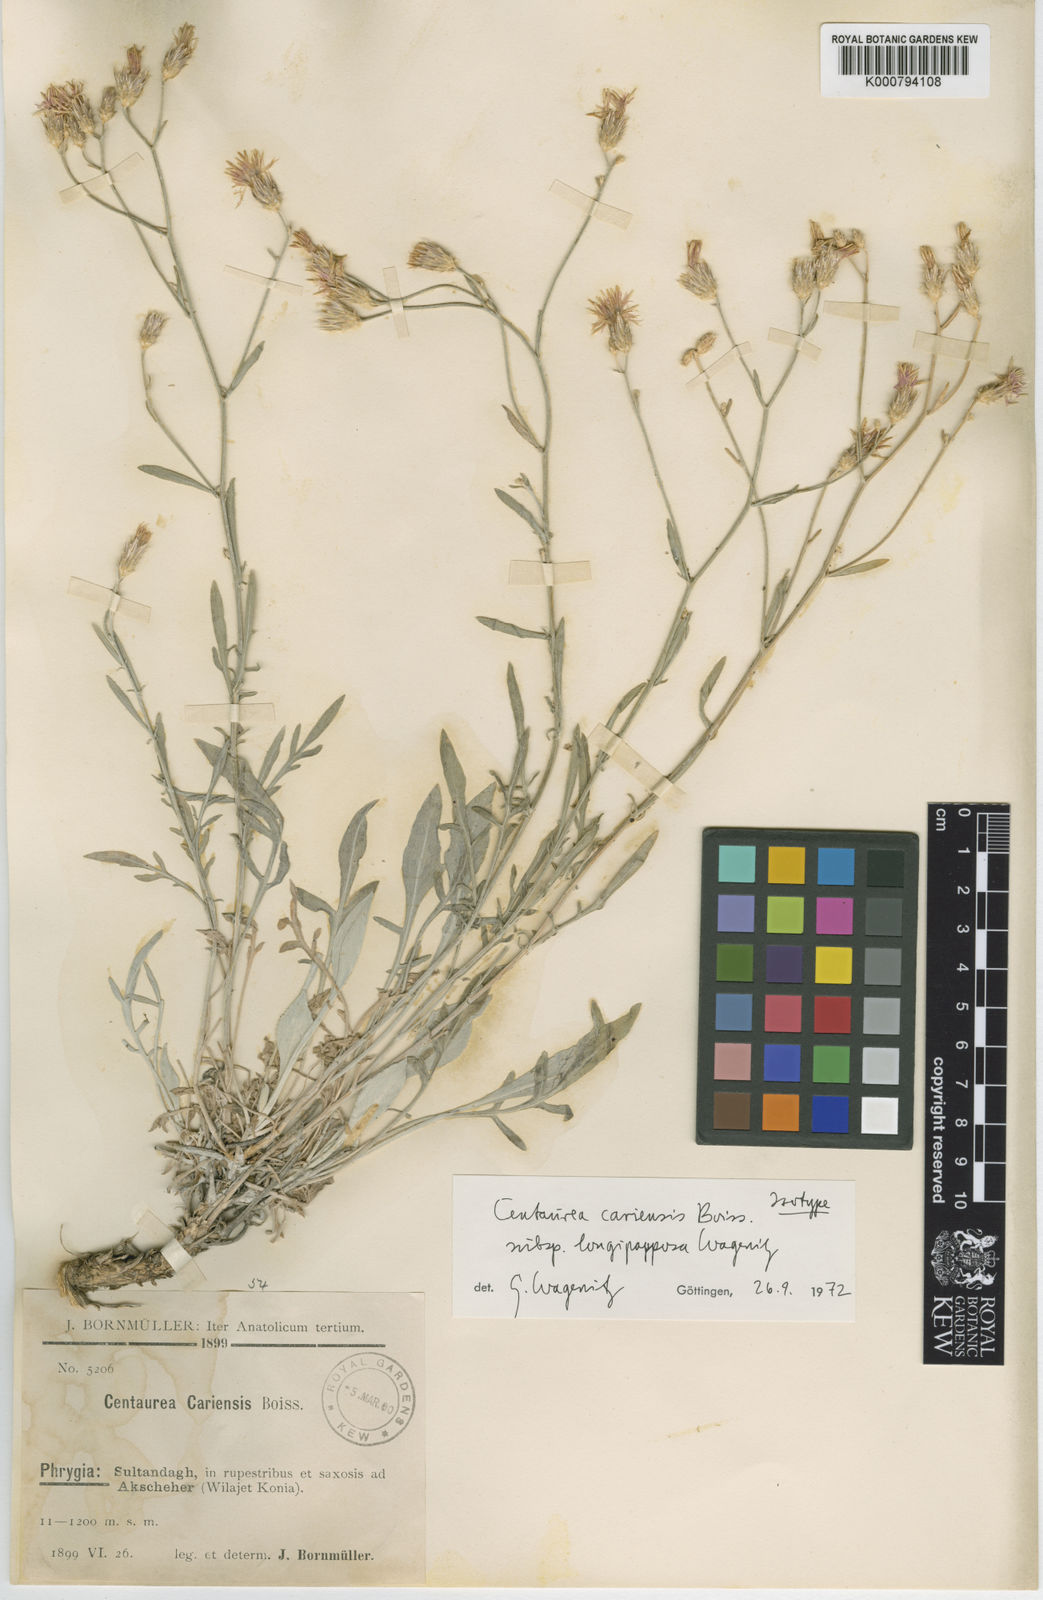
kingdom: Plantae
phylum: Tracheophyta
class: Magnoliopsida
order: Asterales
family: Asteraceae
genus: Centaurea
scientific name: Centaurea cariensis
